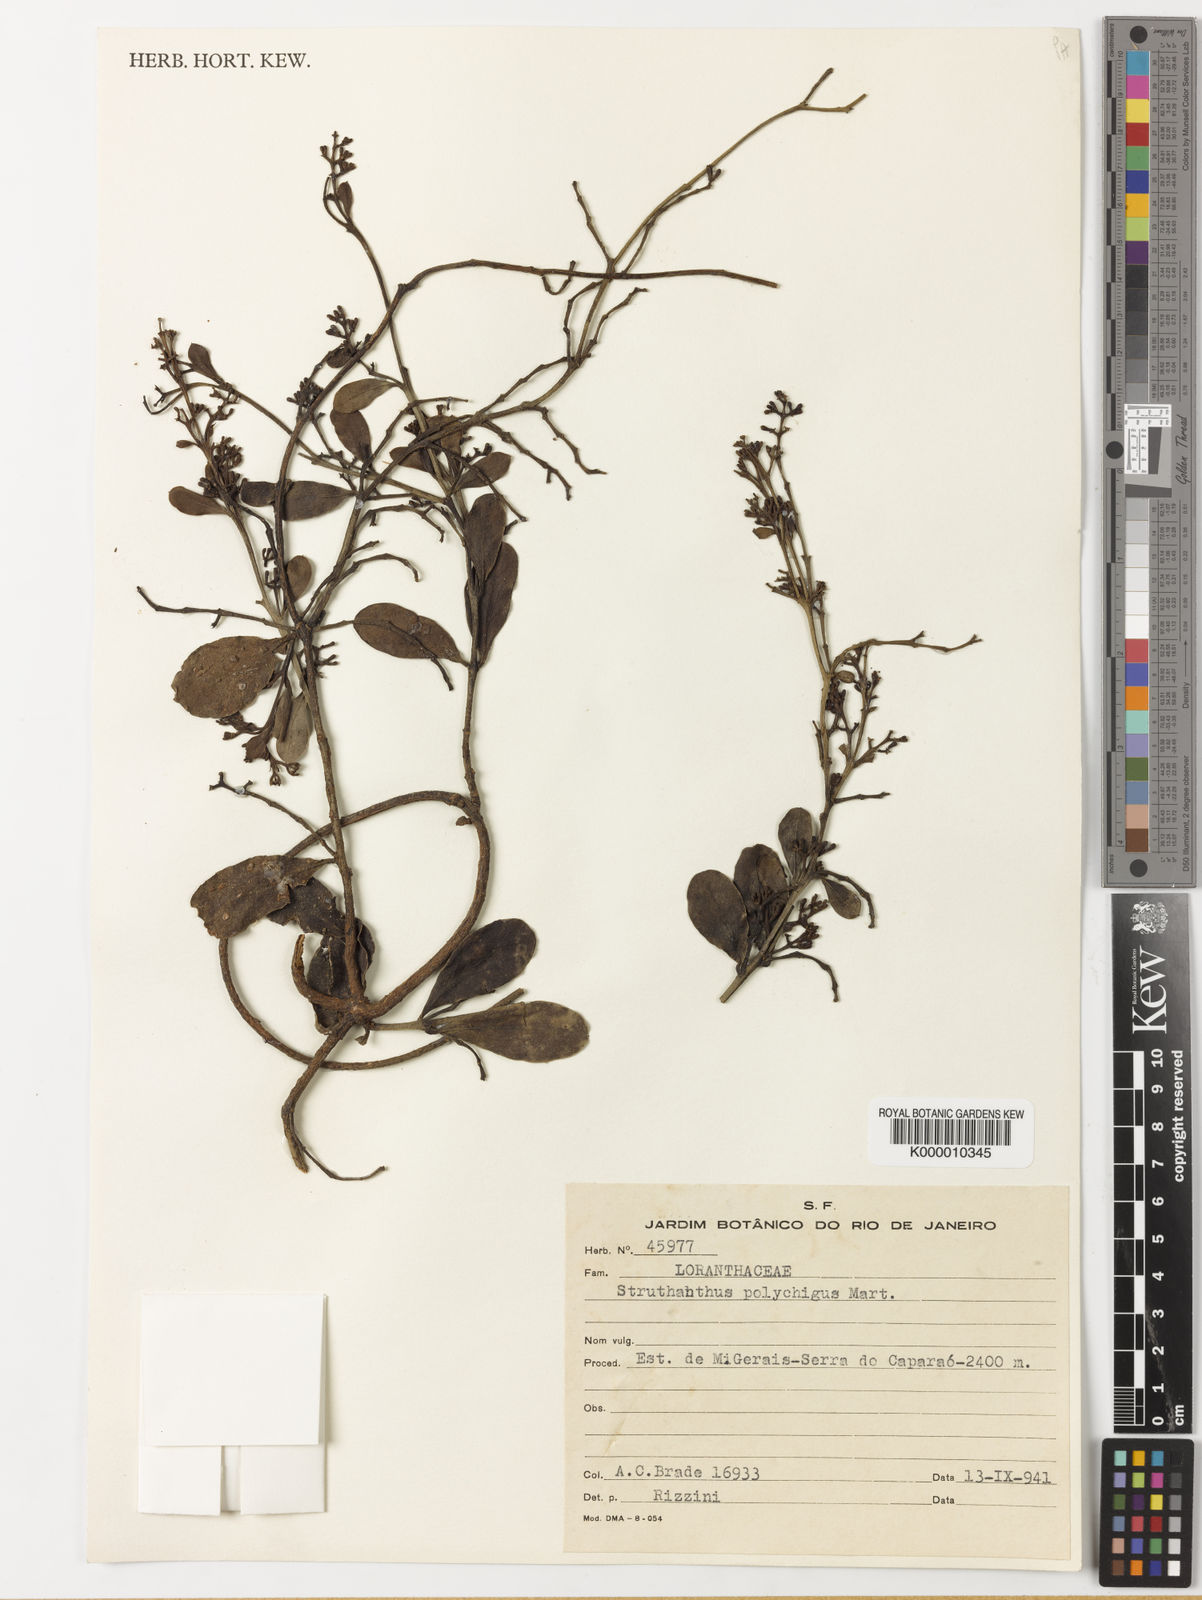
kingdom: Plantae
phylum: Tracheophyta
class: Magnoliopsida
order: Santalales
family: Loranthaceae
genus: Struthanthus
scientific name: Struthanthus retusus
